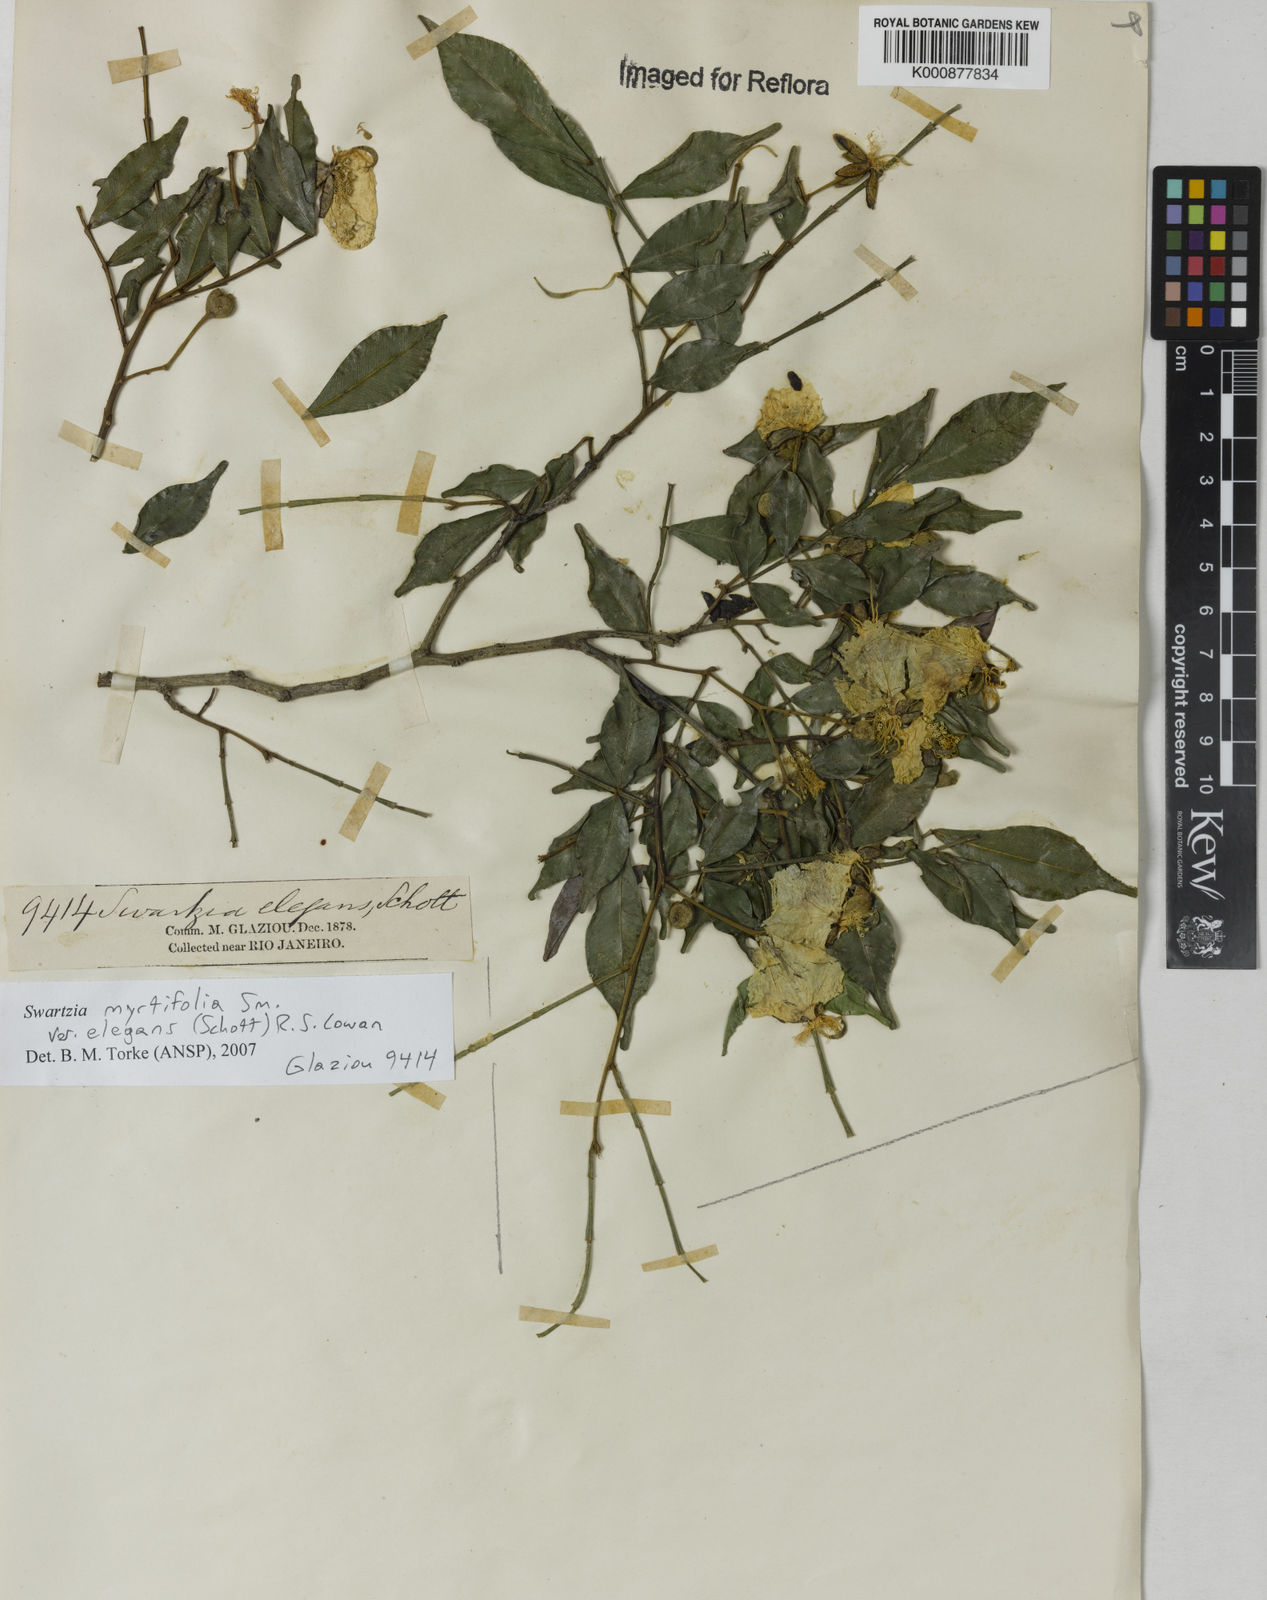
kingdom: Plantae
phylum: Tracheophyta
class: Magnoliopsida
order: Fabales
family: Fabaceae
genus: Swartzia
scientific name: Swartzia myrtifolia
